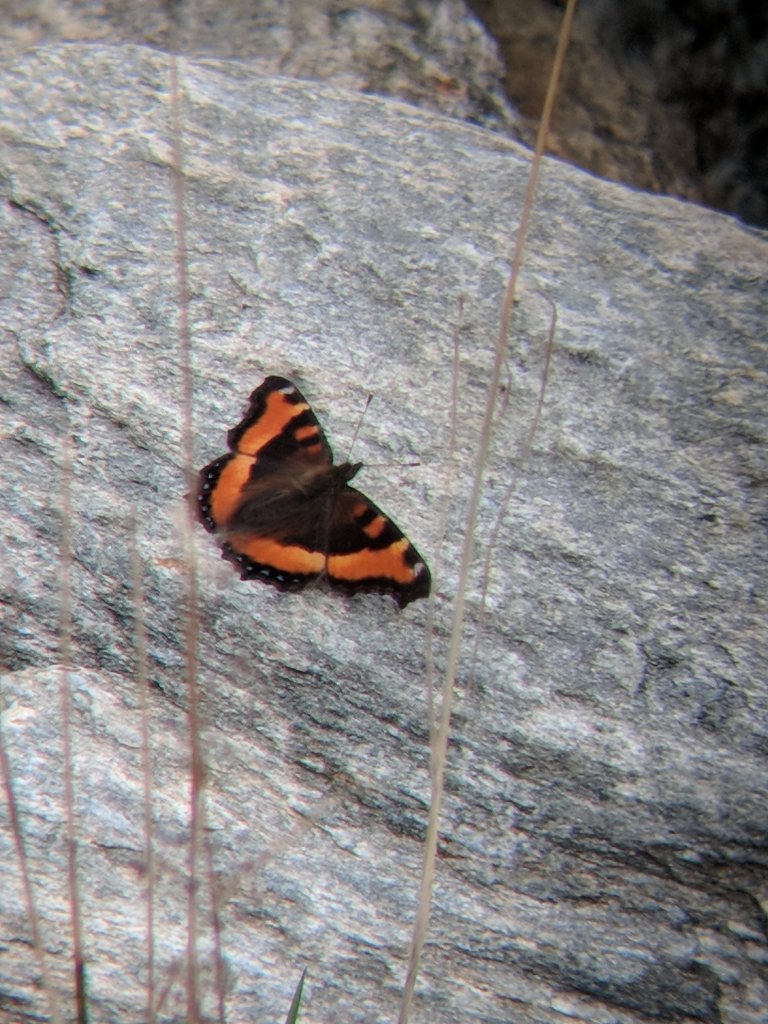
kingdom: Animalia
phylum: Arthropoda
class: Insecta
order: Lepidoptera
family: Nymphalidae
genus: Aglais
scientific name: Aglais milberti
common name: Milbert's Tortoiseshell
